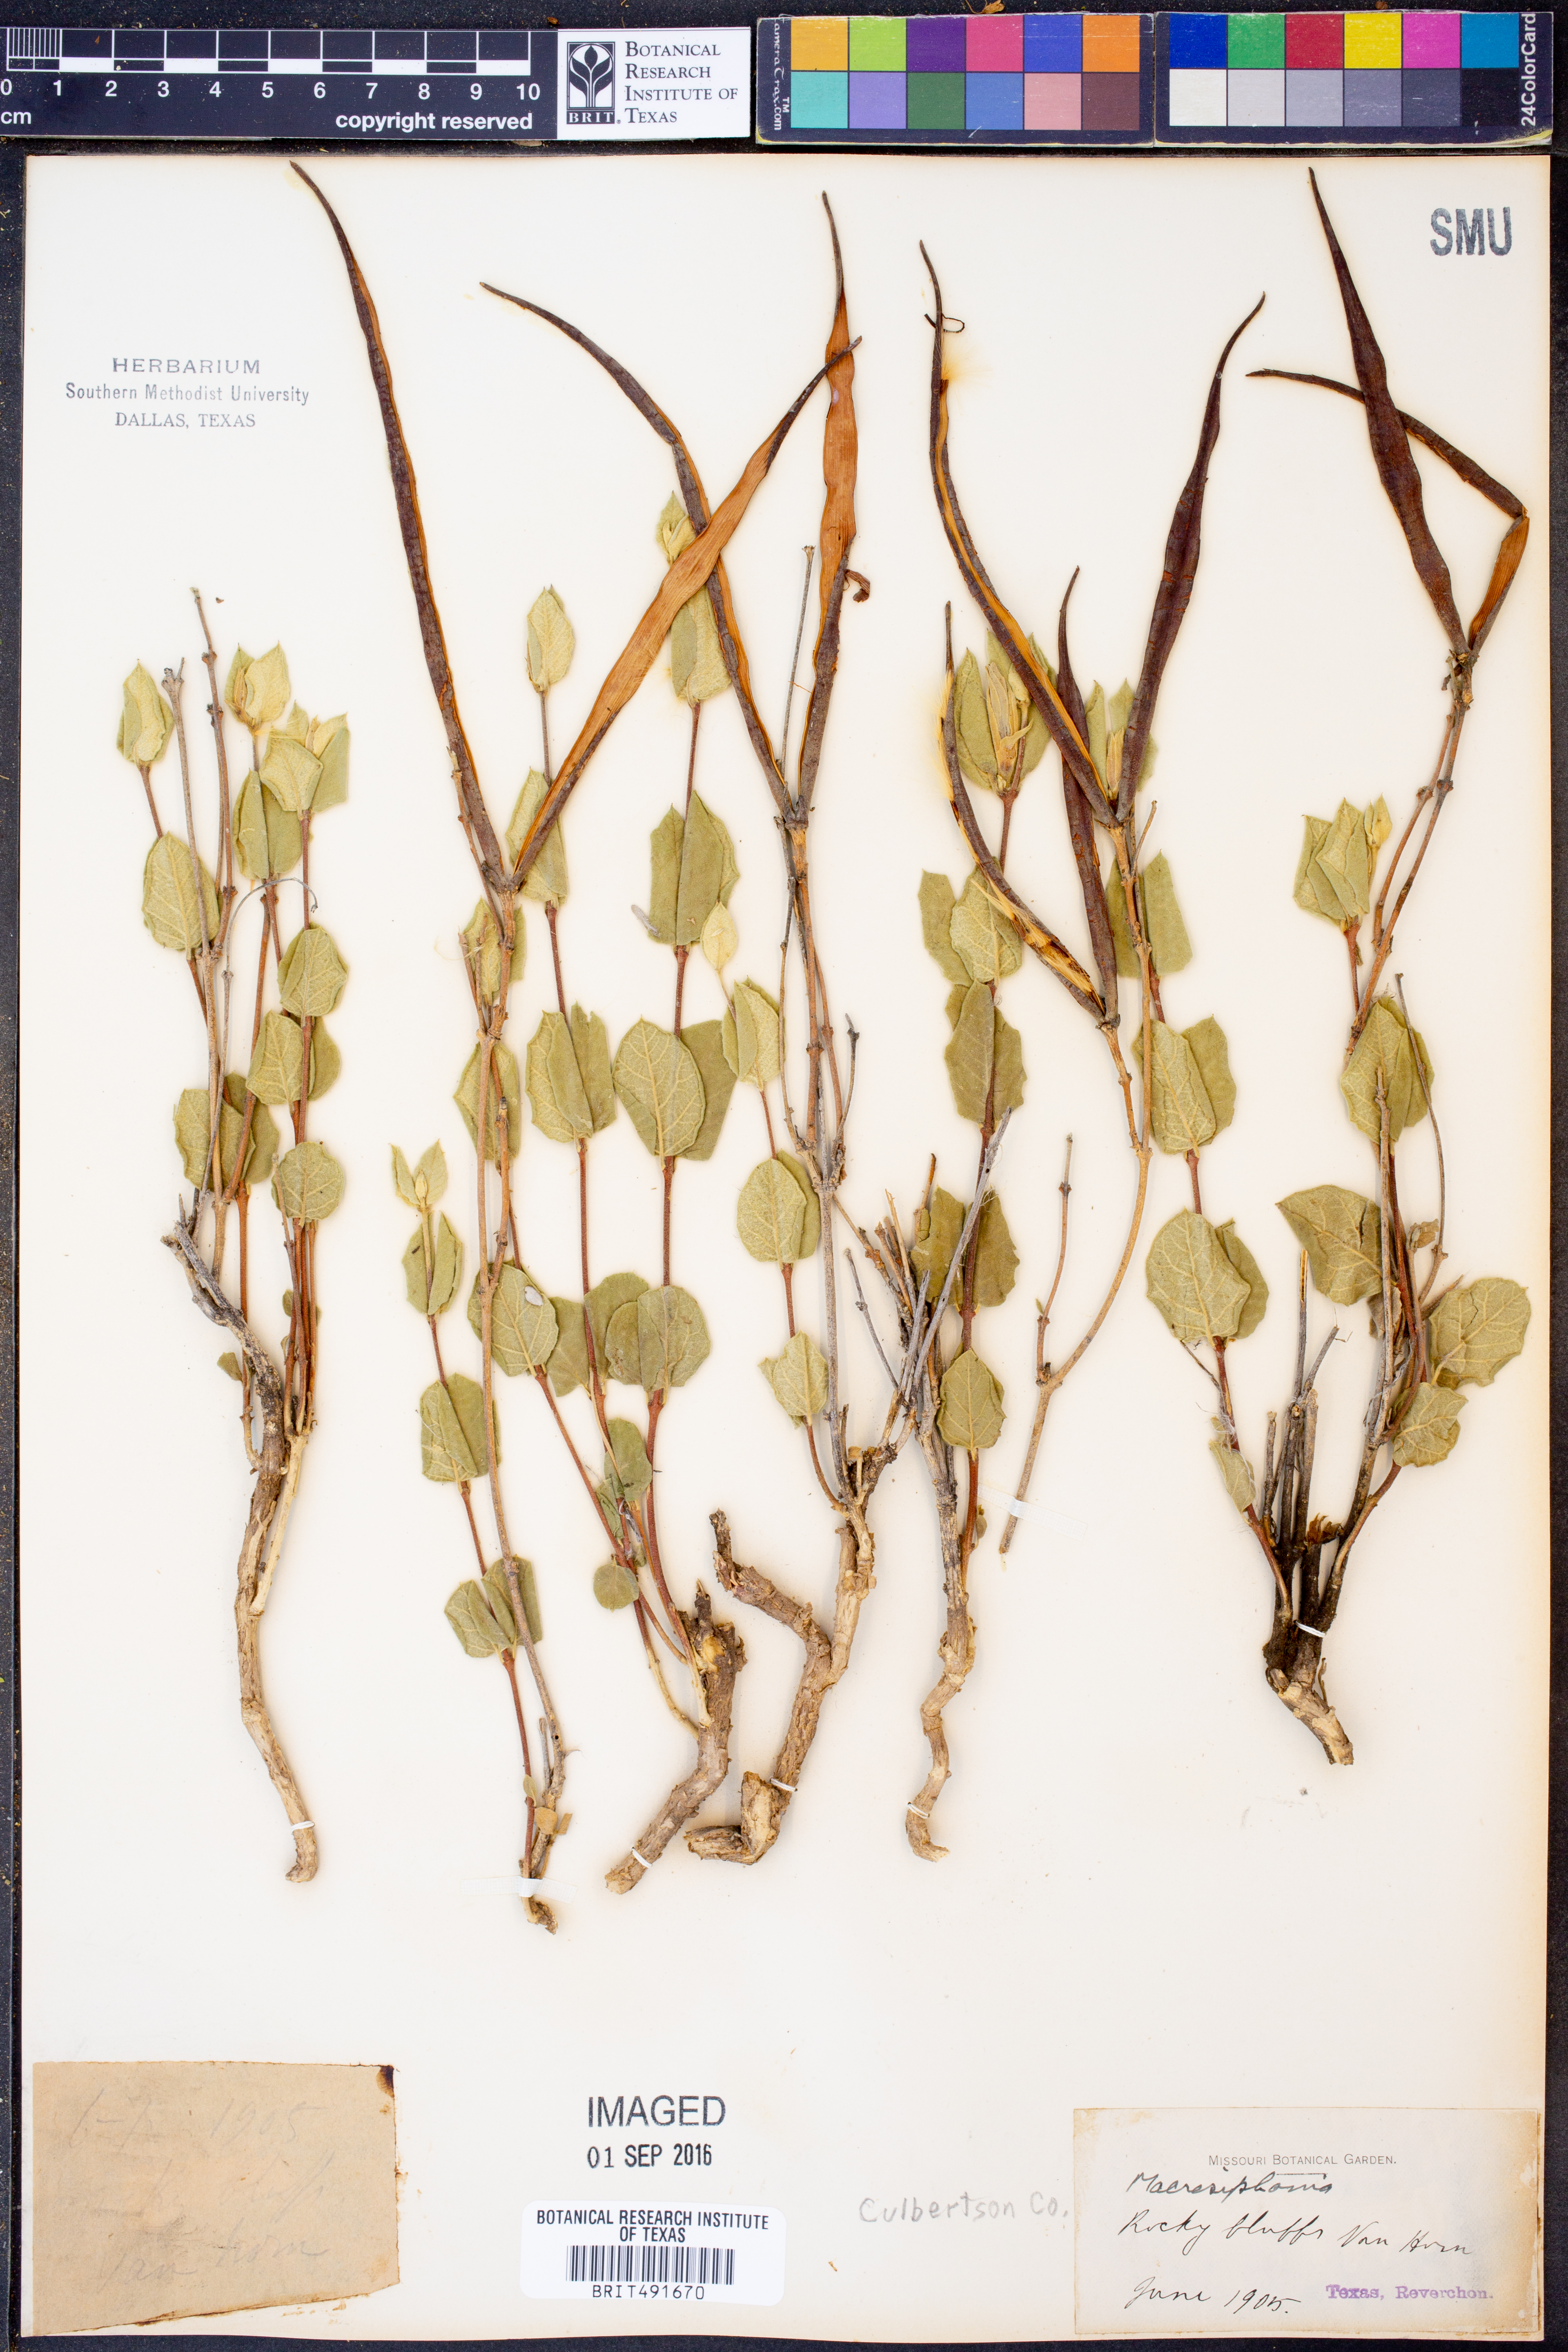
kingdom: Plantae
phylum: Tracheophyta
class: Magnoliopsida
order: Gentianales
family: Apocynaceae
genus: Mandevilla
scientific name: Mandevilla
